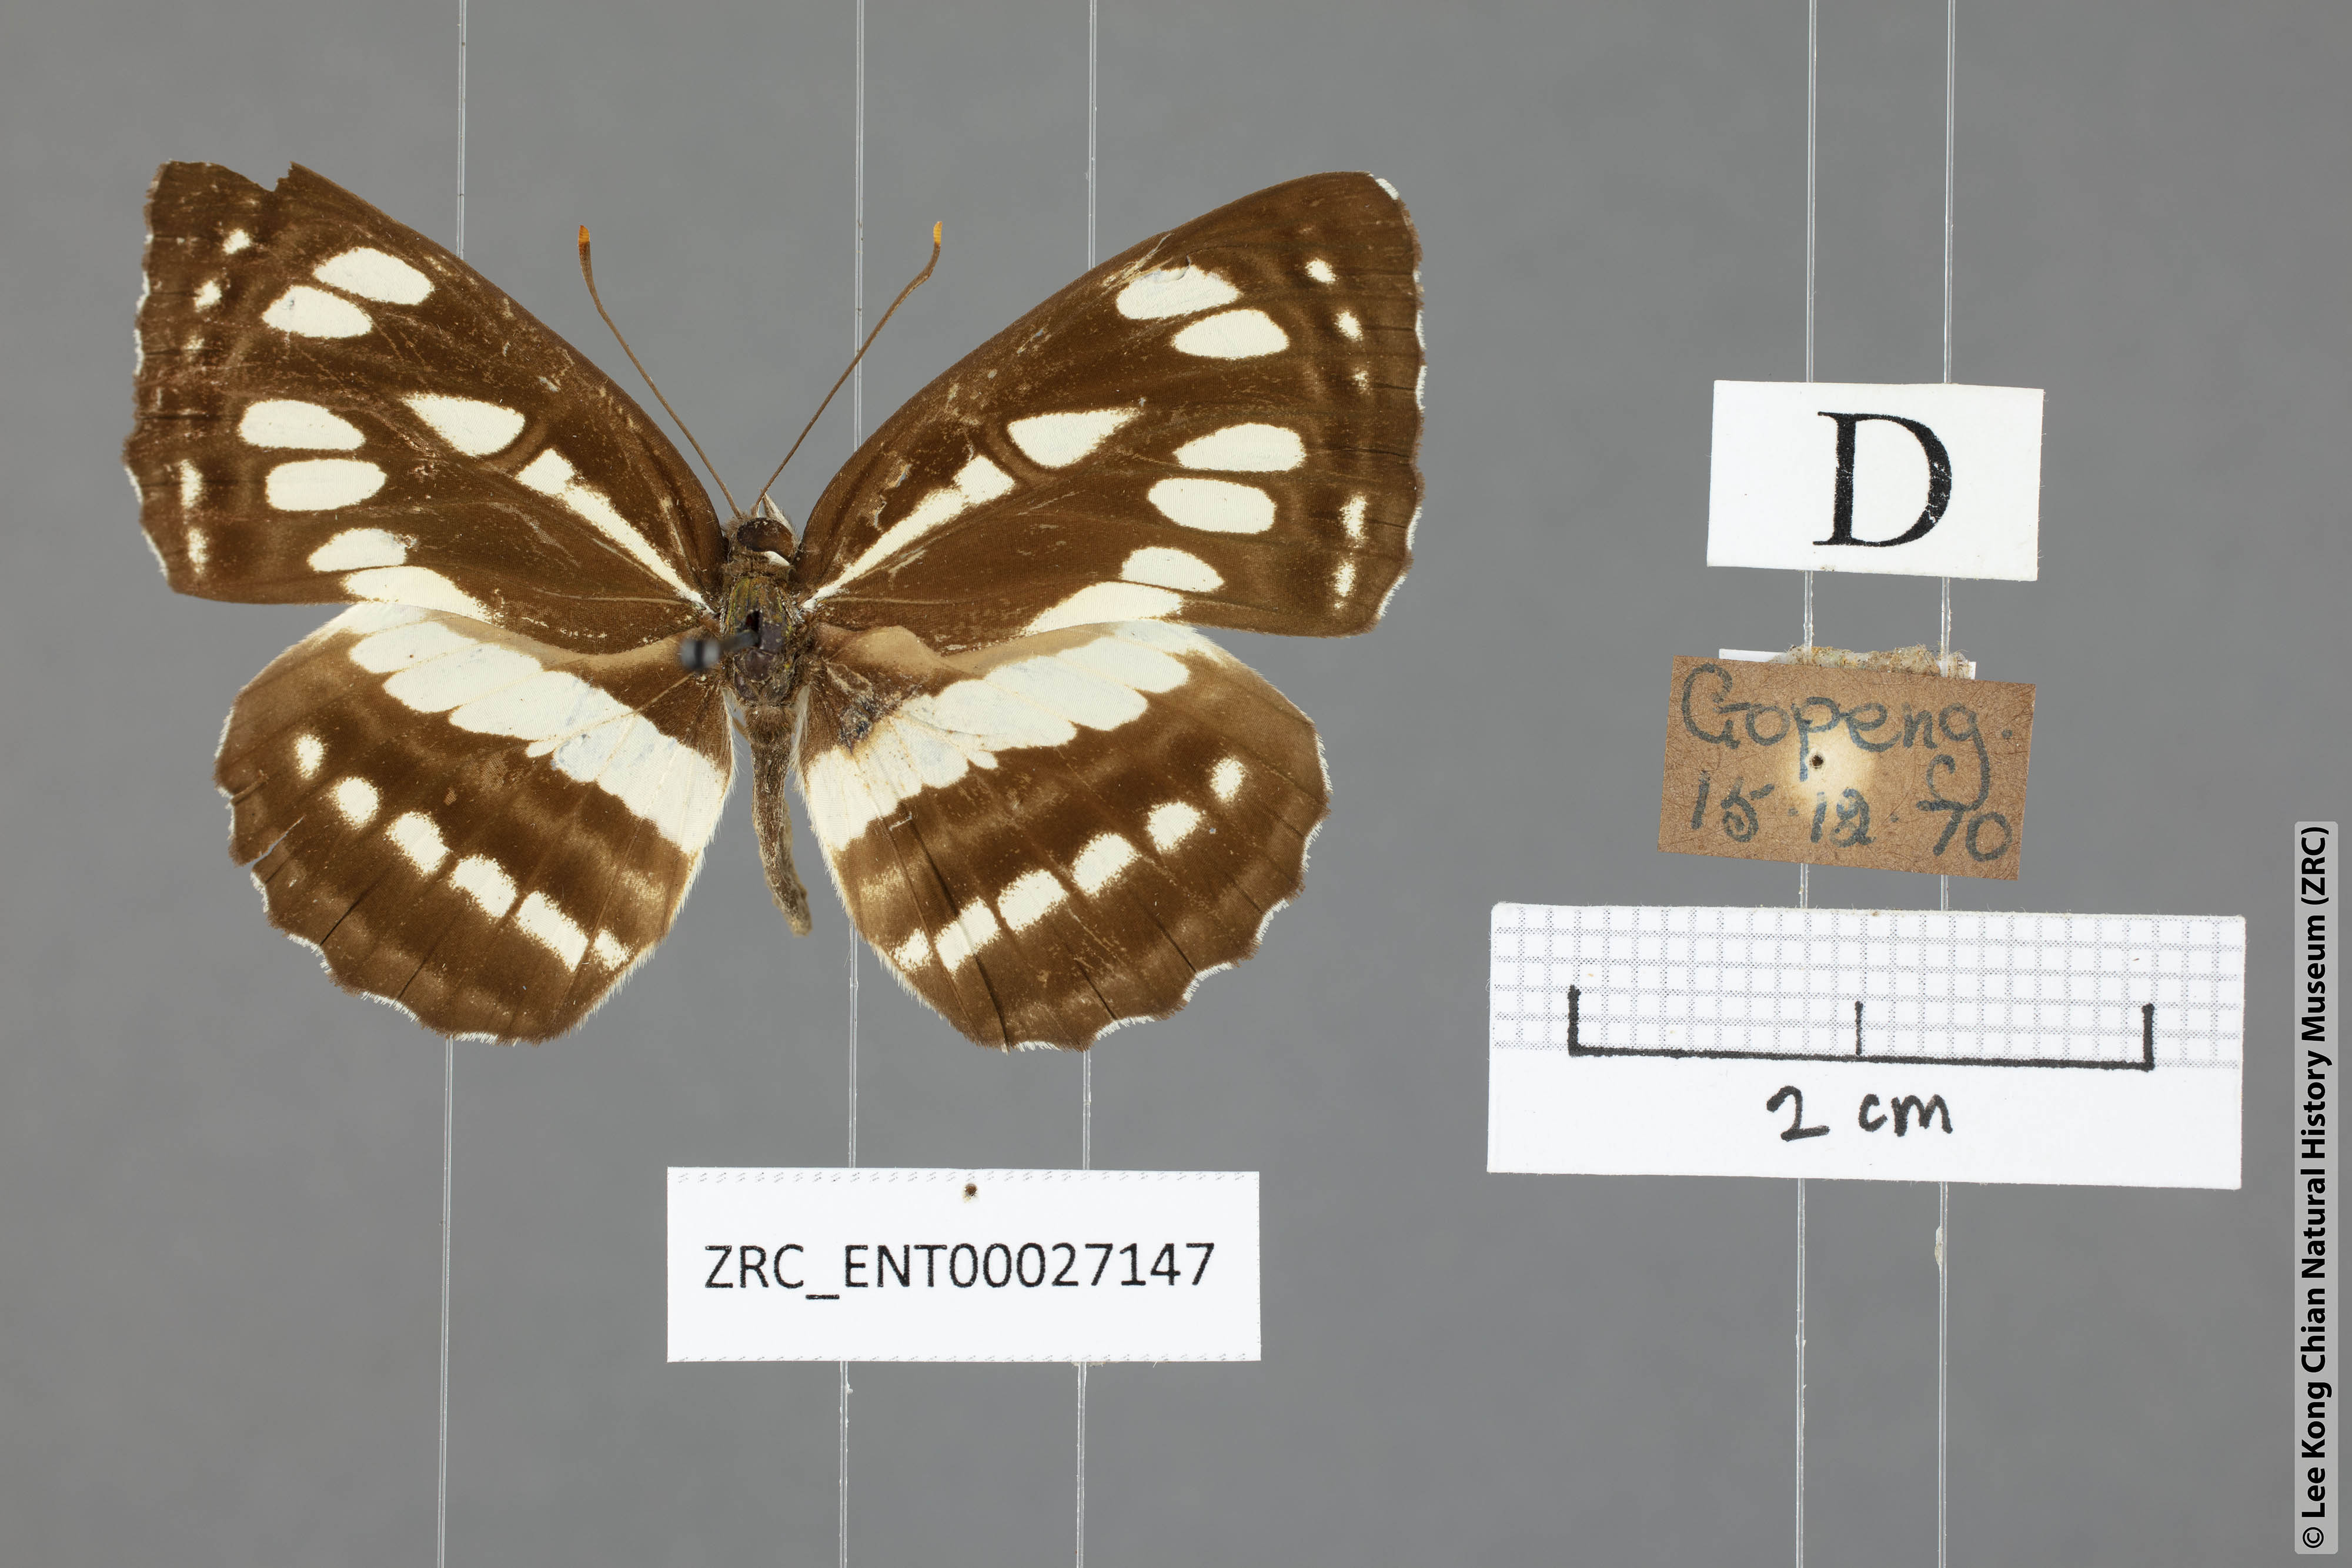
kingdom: Animalia
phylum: Arthropoda
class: Insecta
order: Lepidoptera
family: Nymphalidae
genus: Neptis
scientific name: Neptis hylas
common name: Common sailer
